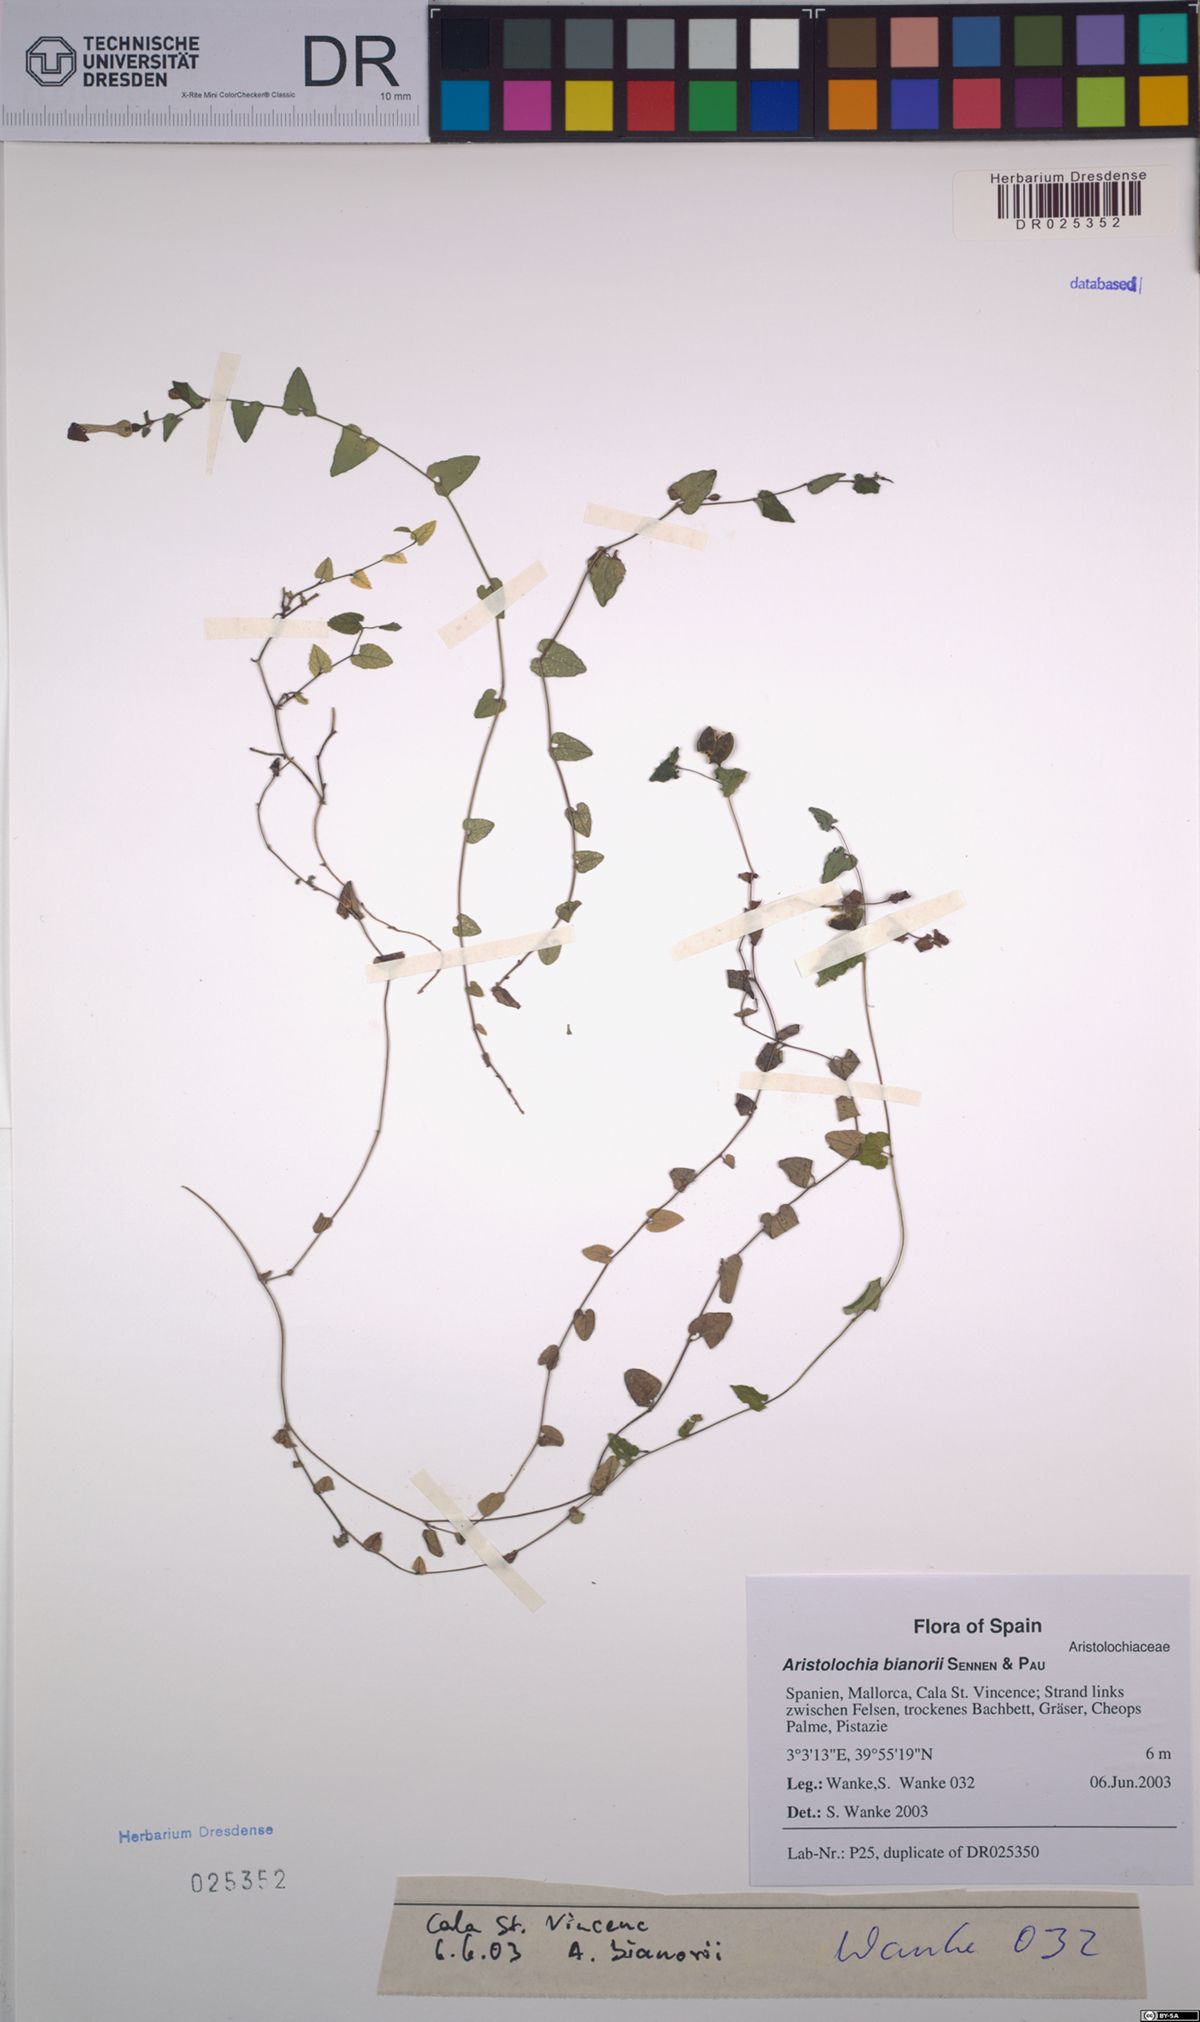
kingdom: Plantae
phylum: Tracheophyta
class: Magnoliopsida
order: Piperales
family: Aristolochiaceae
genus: Aristolochia
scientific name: Aristolochia bianorii
